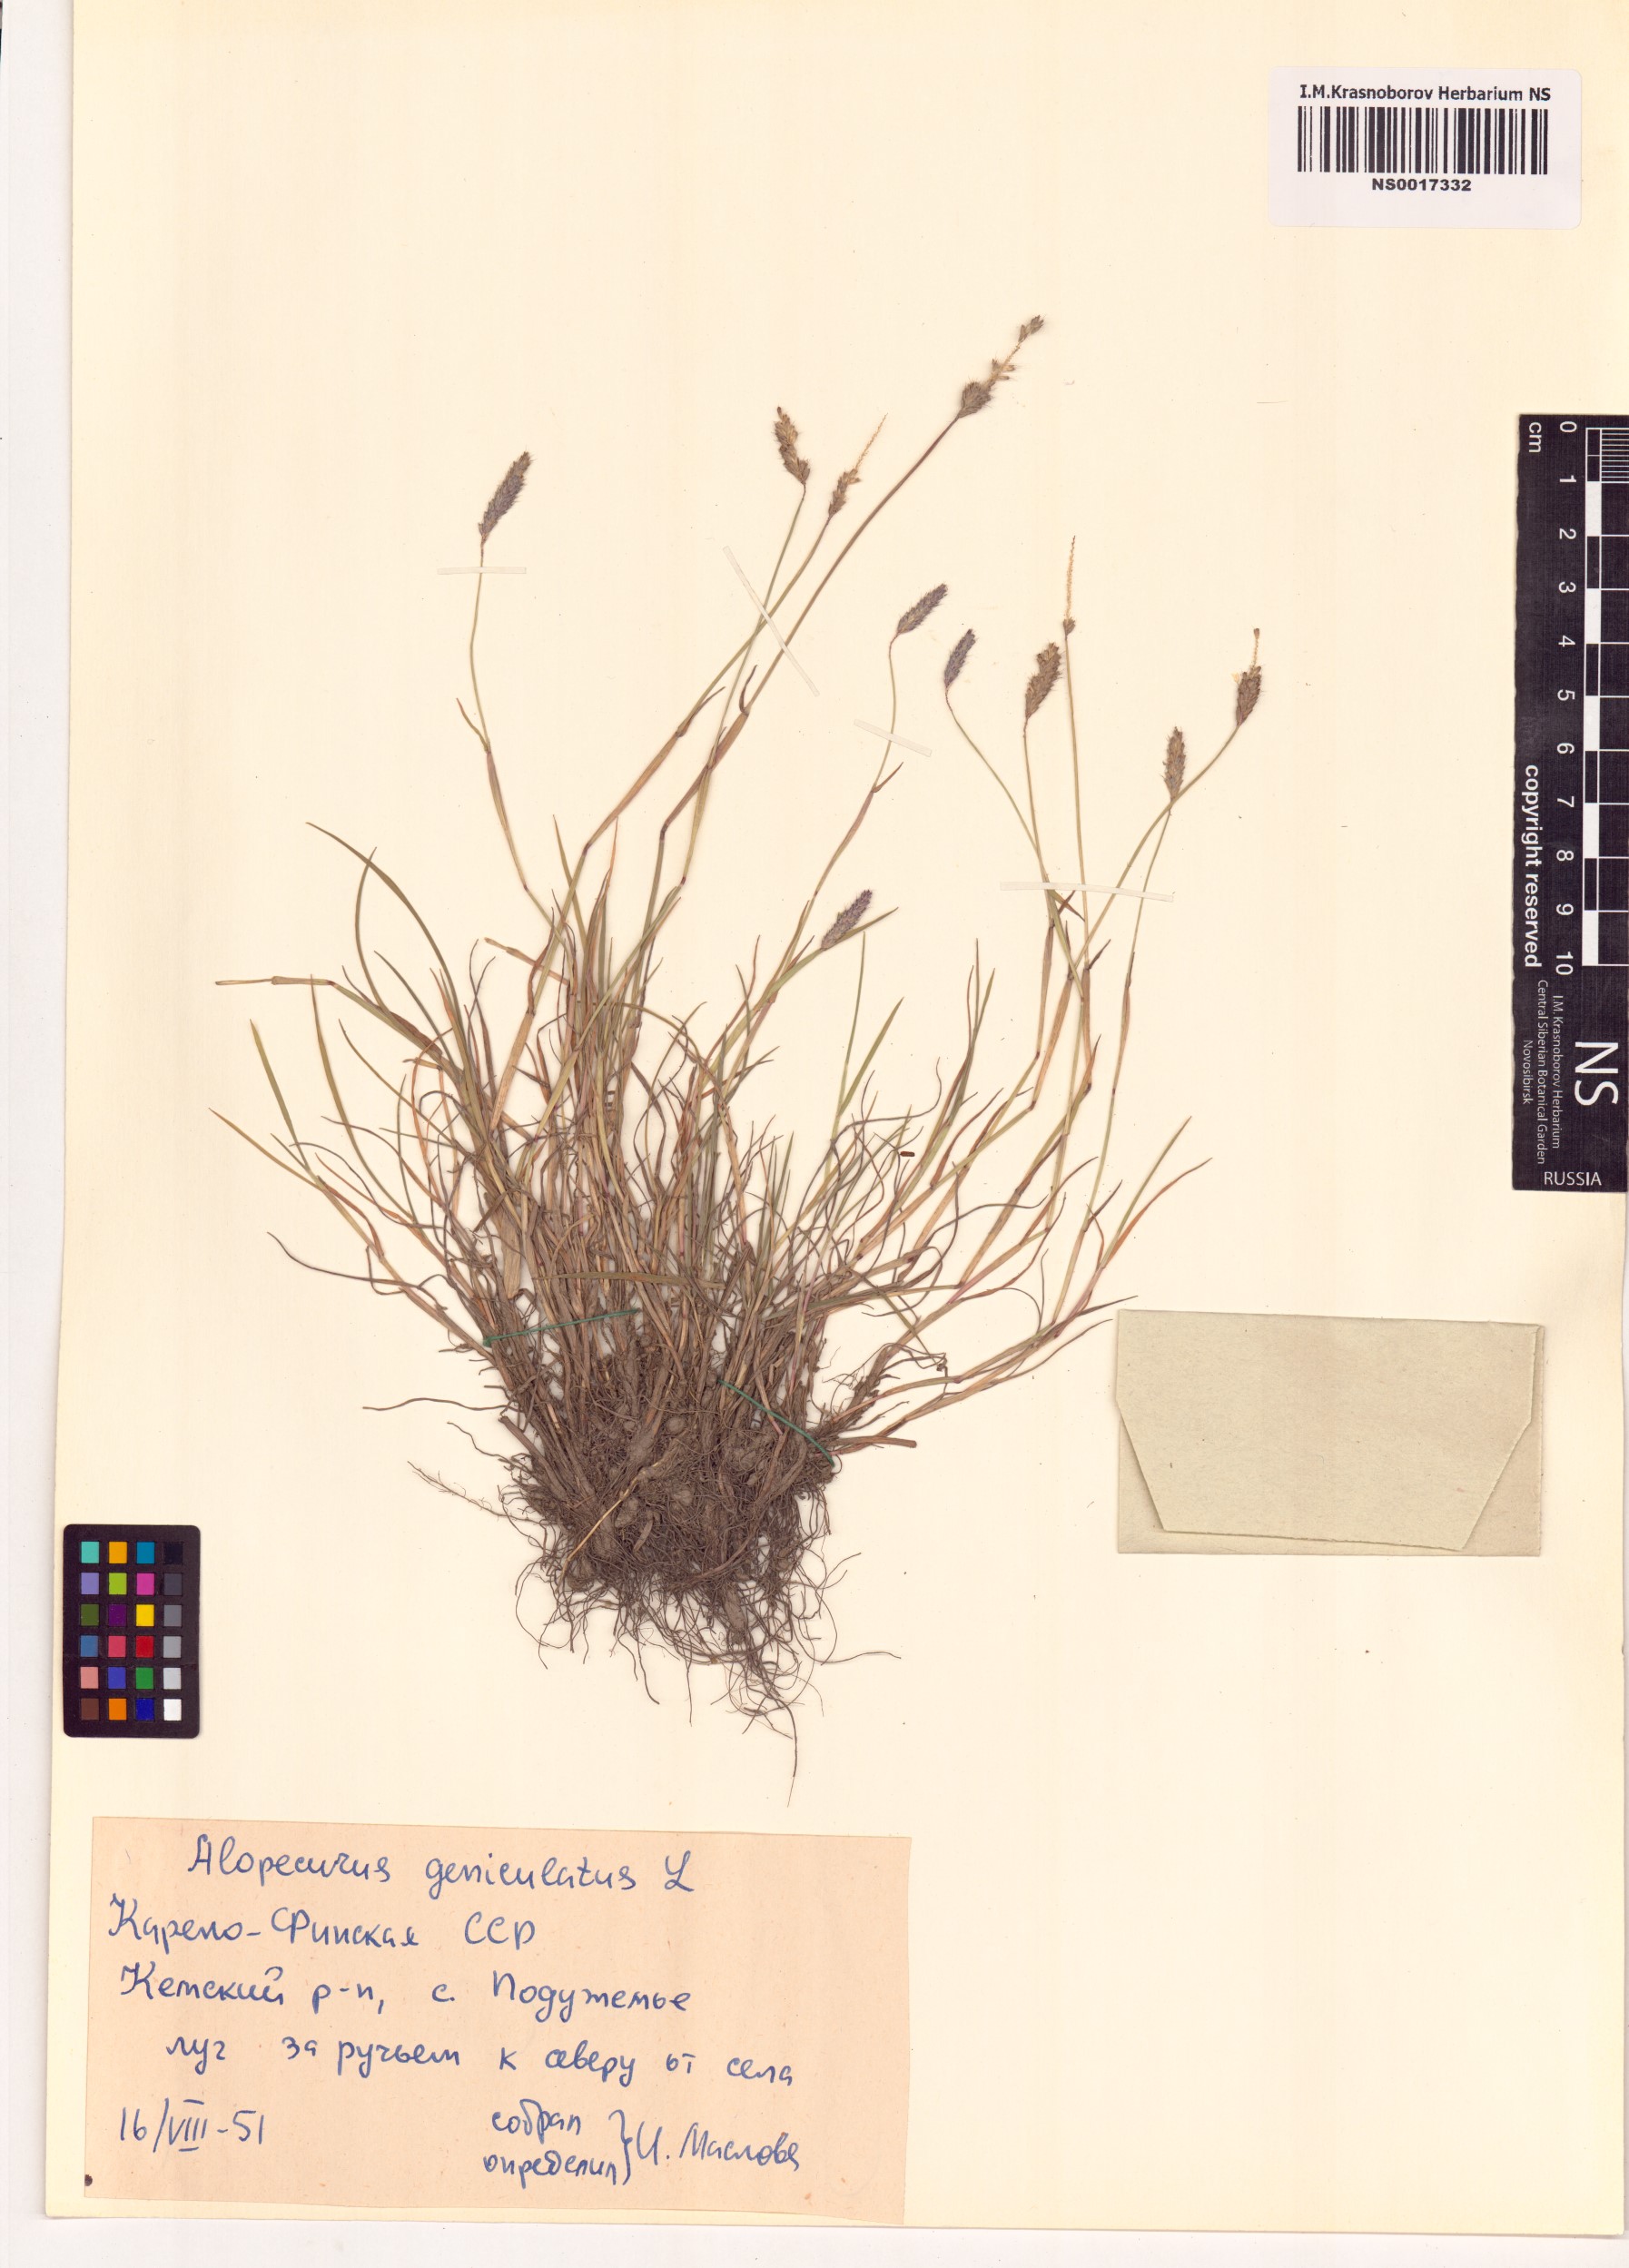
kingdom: Plantae
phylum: Tracheophyta
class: Liliopsida
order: Poales
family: Poaceae
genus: Alopecurus
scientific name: Alopecurus geniculatus
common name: Water foxtail
